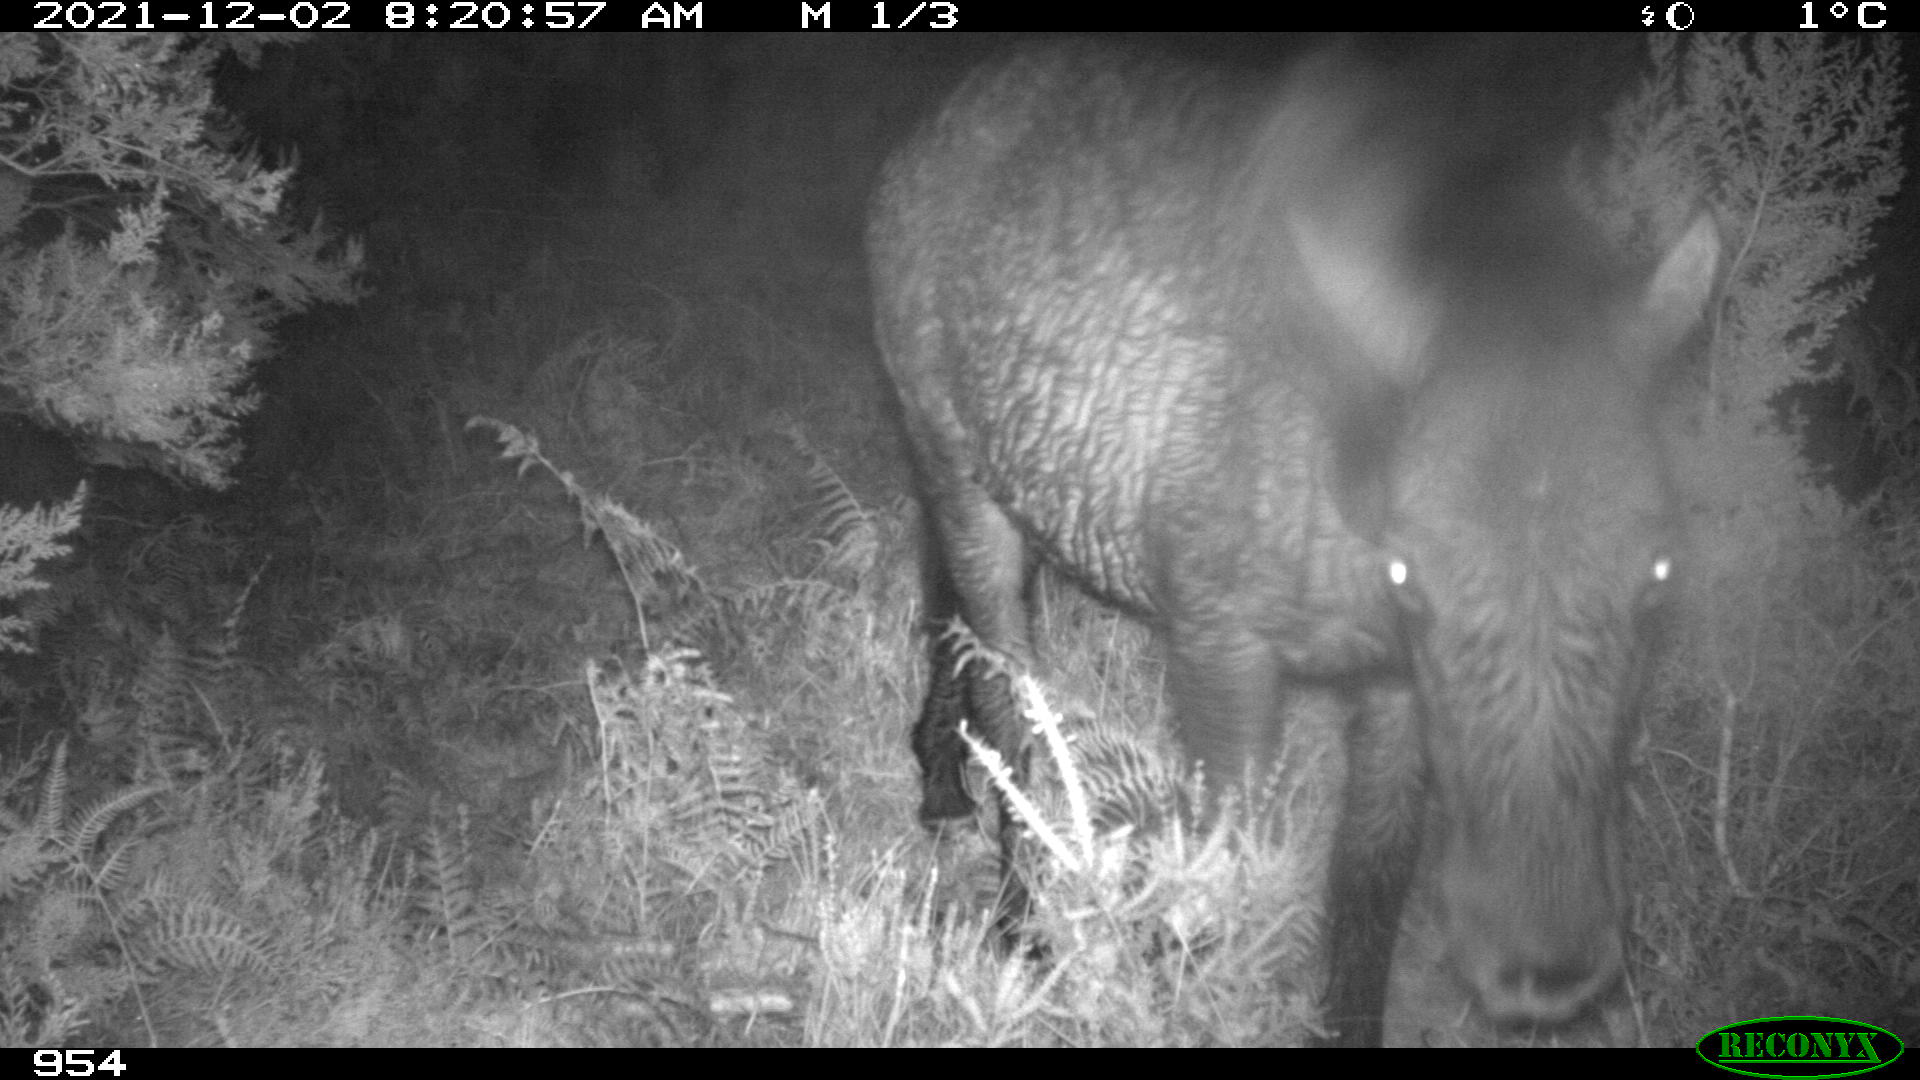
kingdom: Animalia
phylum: Chordata
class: Mammalia
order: Perissodactyla
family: Equidae
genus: Equus
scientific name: Equus caballus
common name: Horse
